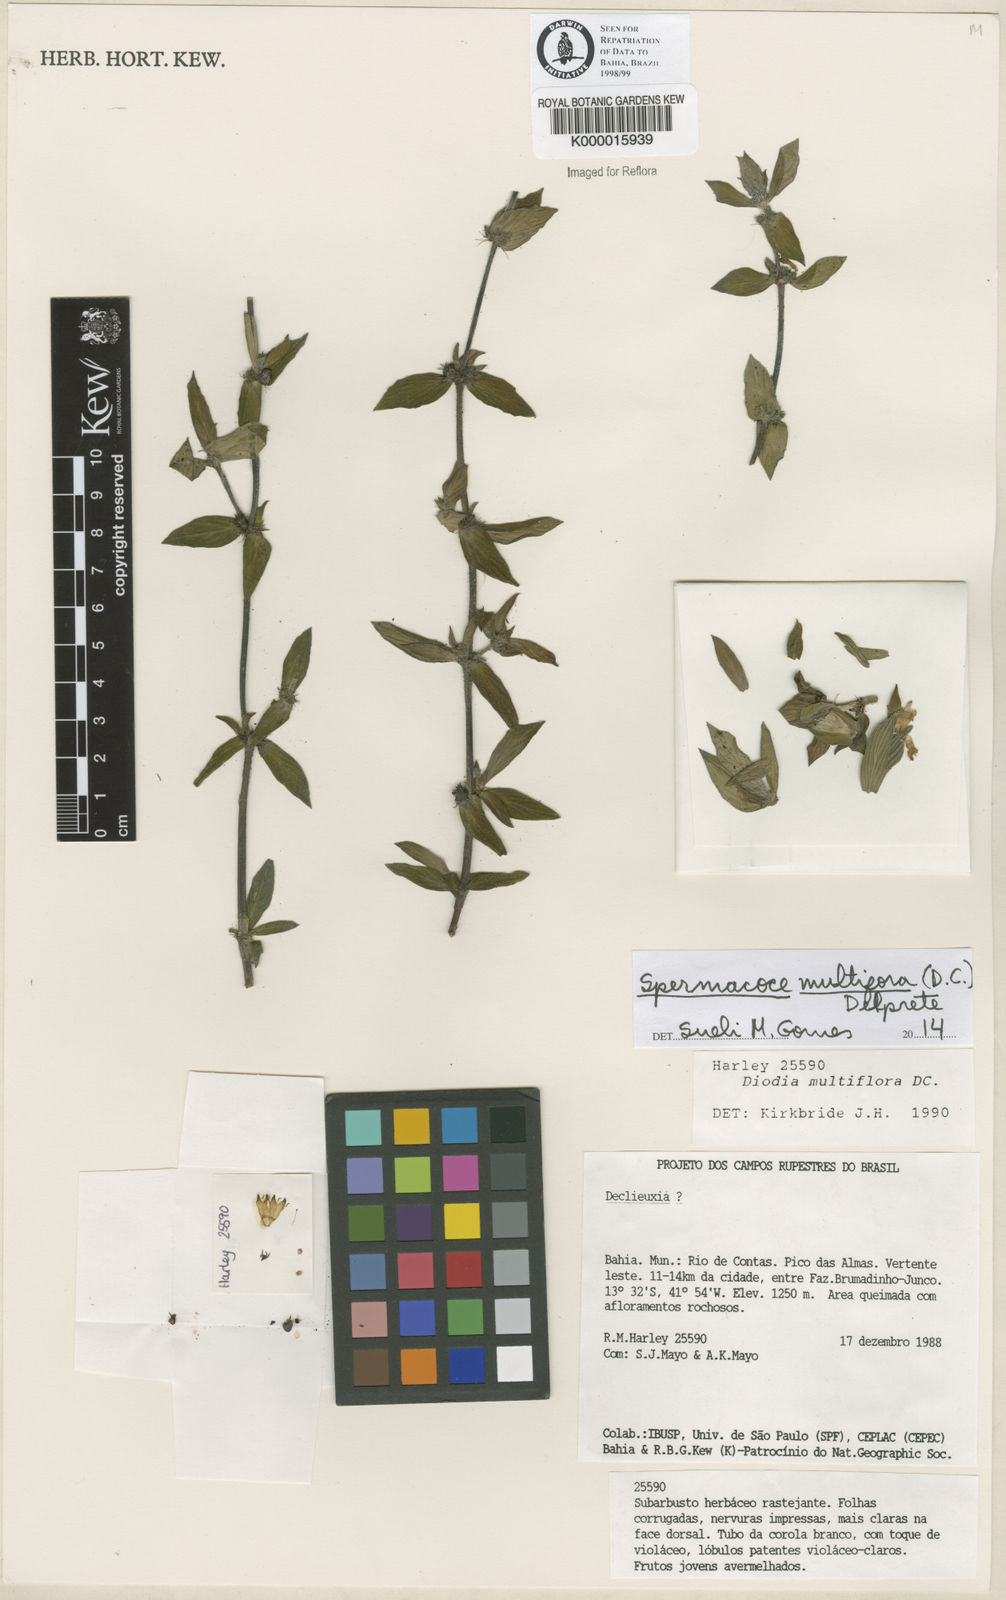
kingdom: Plantae
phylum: Tracheophyta
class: Magnoliopsida
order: Gentianales
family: Rubiaceae
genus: Spermacoce
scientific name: Spermacoce multiflora
